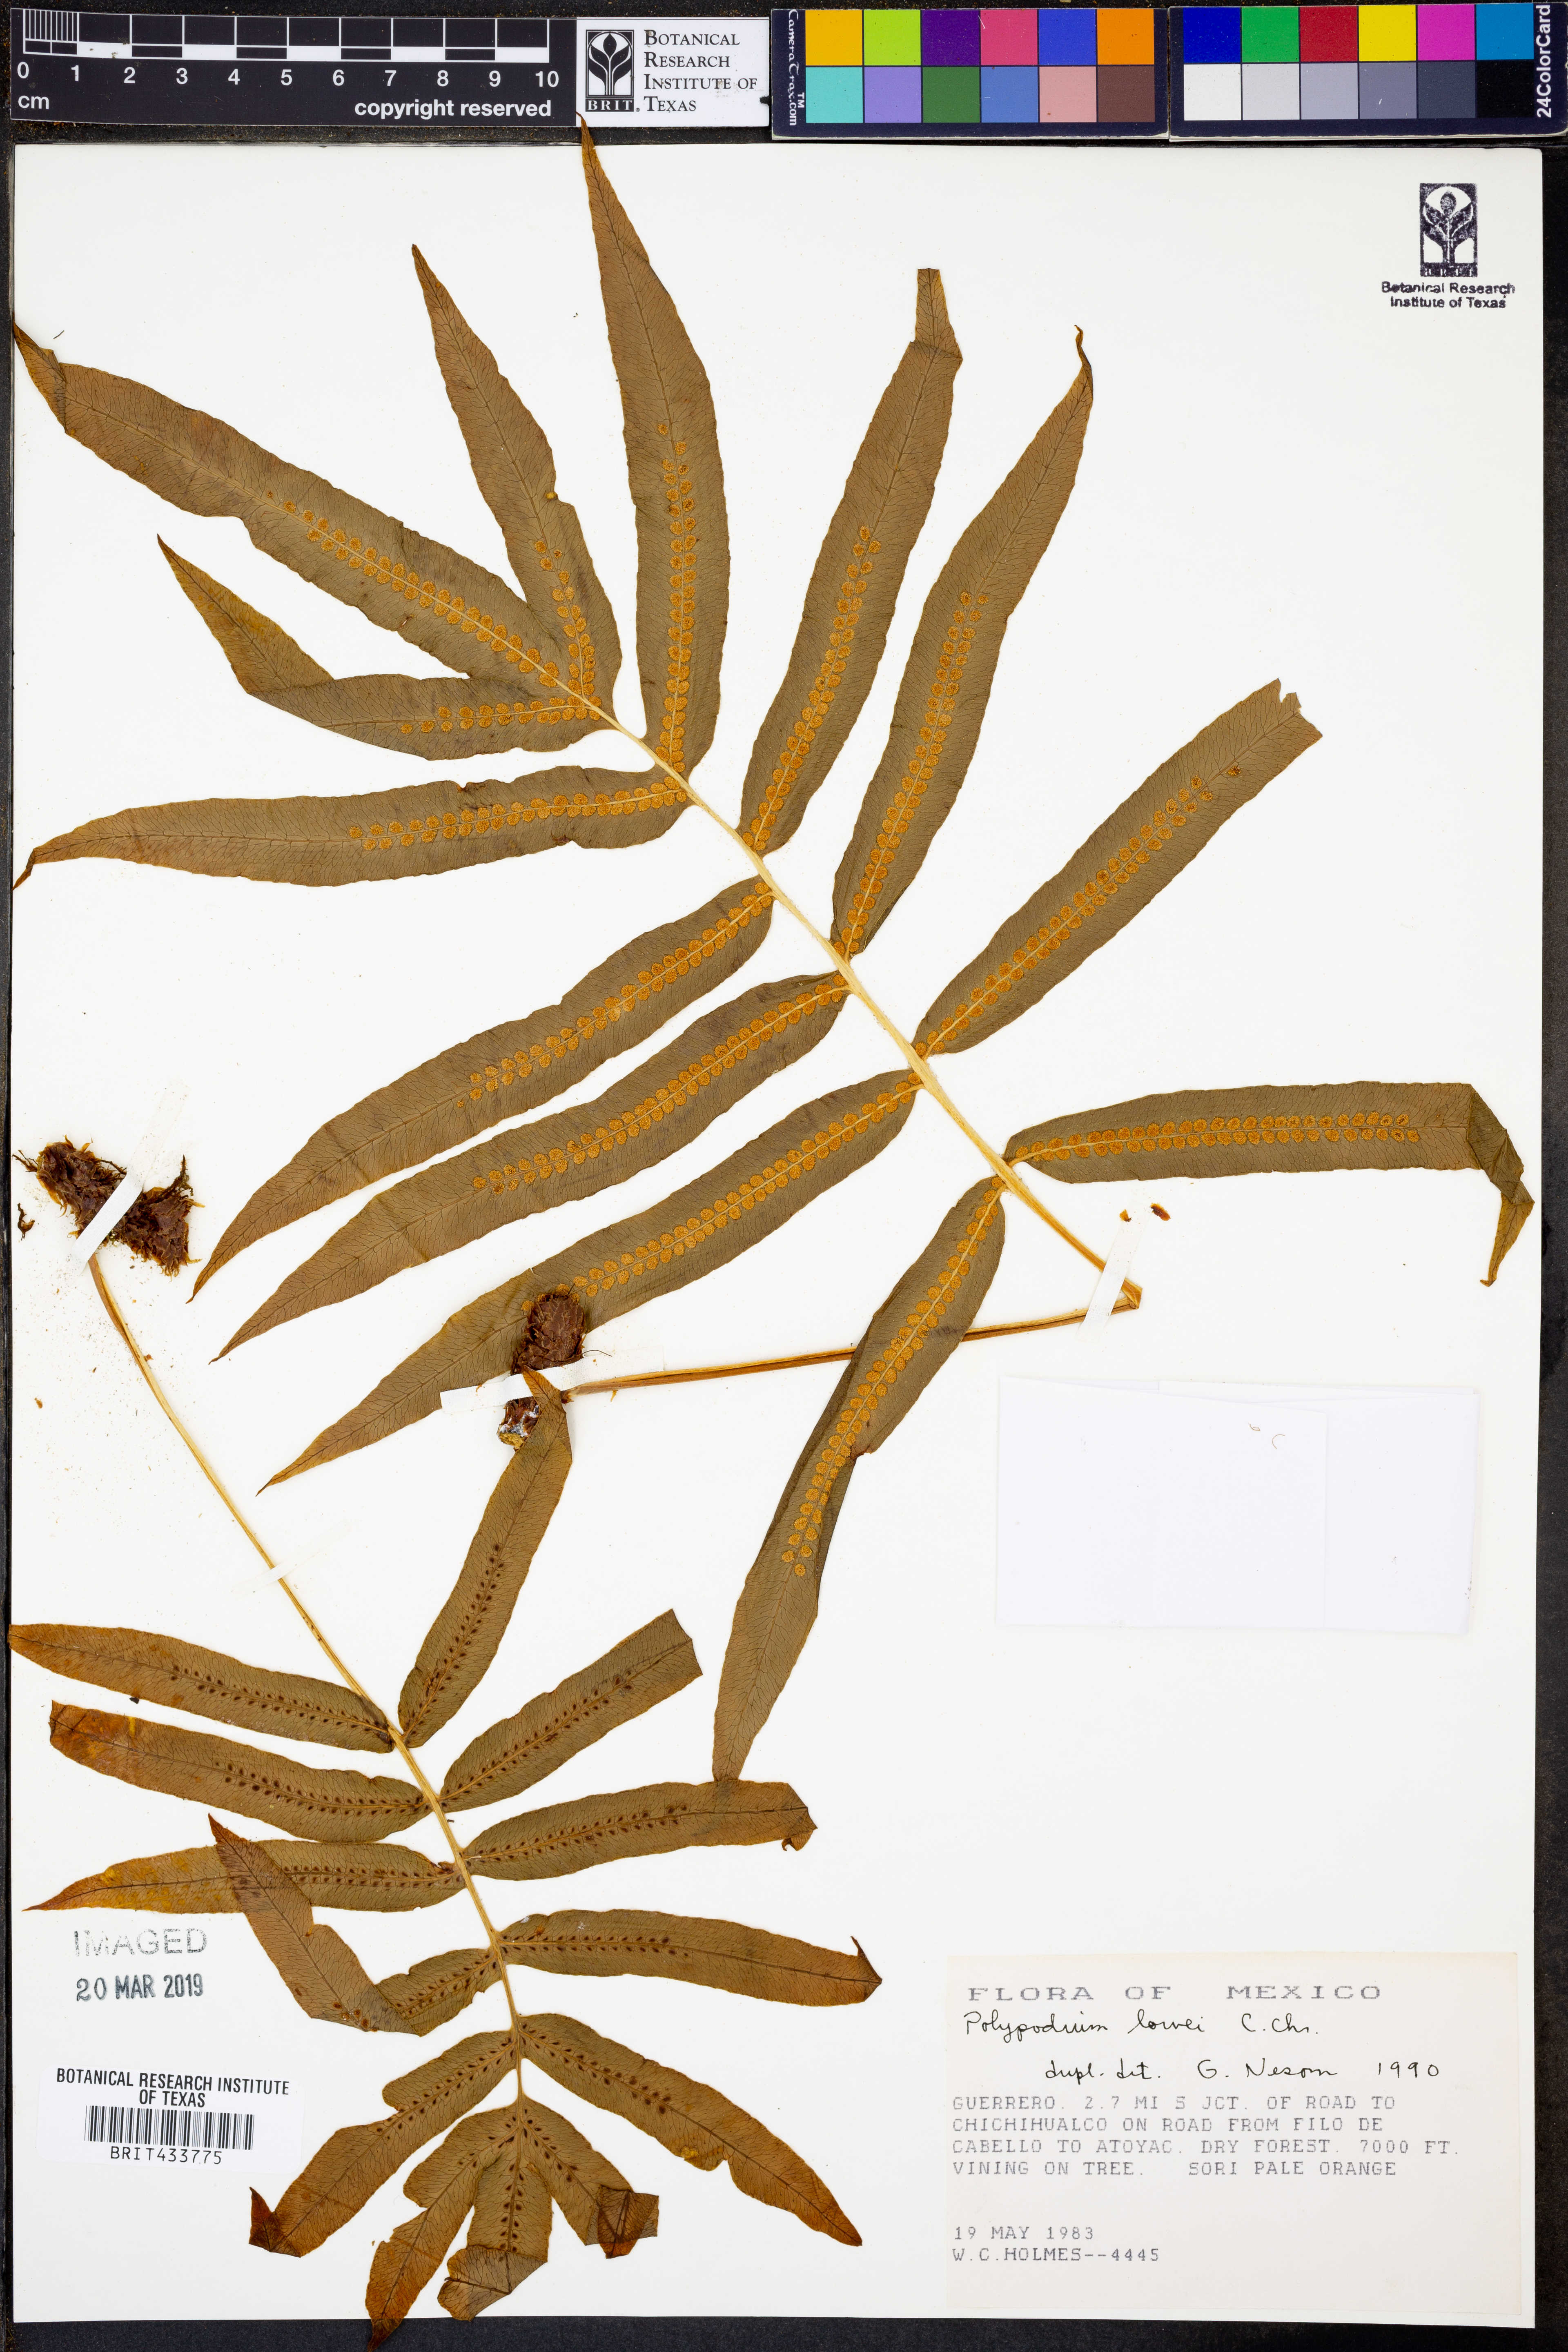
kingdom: Plantae
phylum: Tracheophyta
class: Polypodiopsida
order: Polypodiales
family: Polypodiaceae
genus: Polypodium
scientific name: Polypodium pleurosorum
